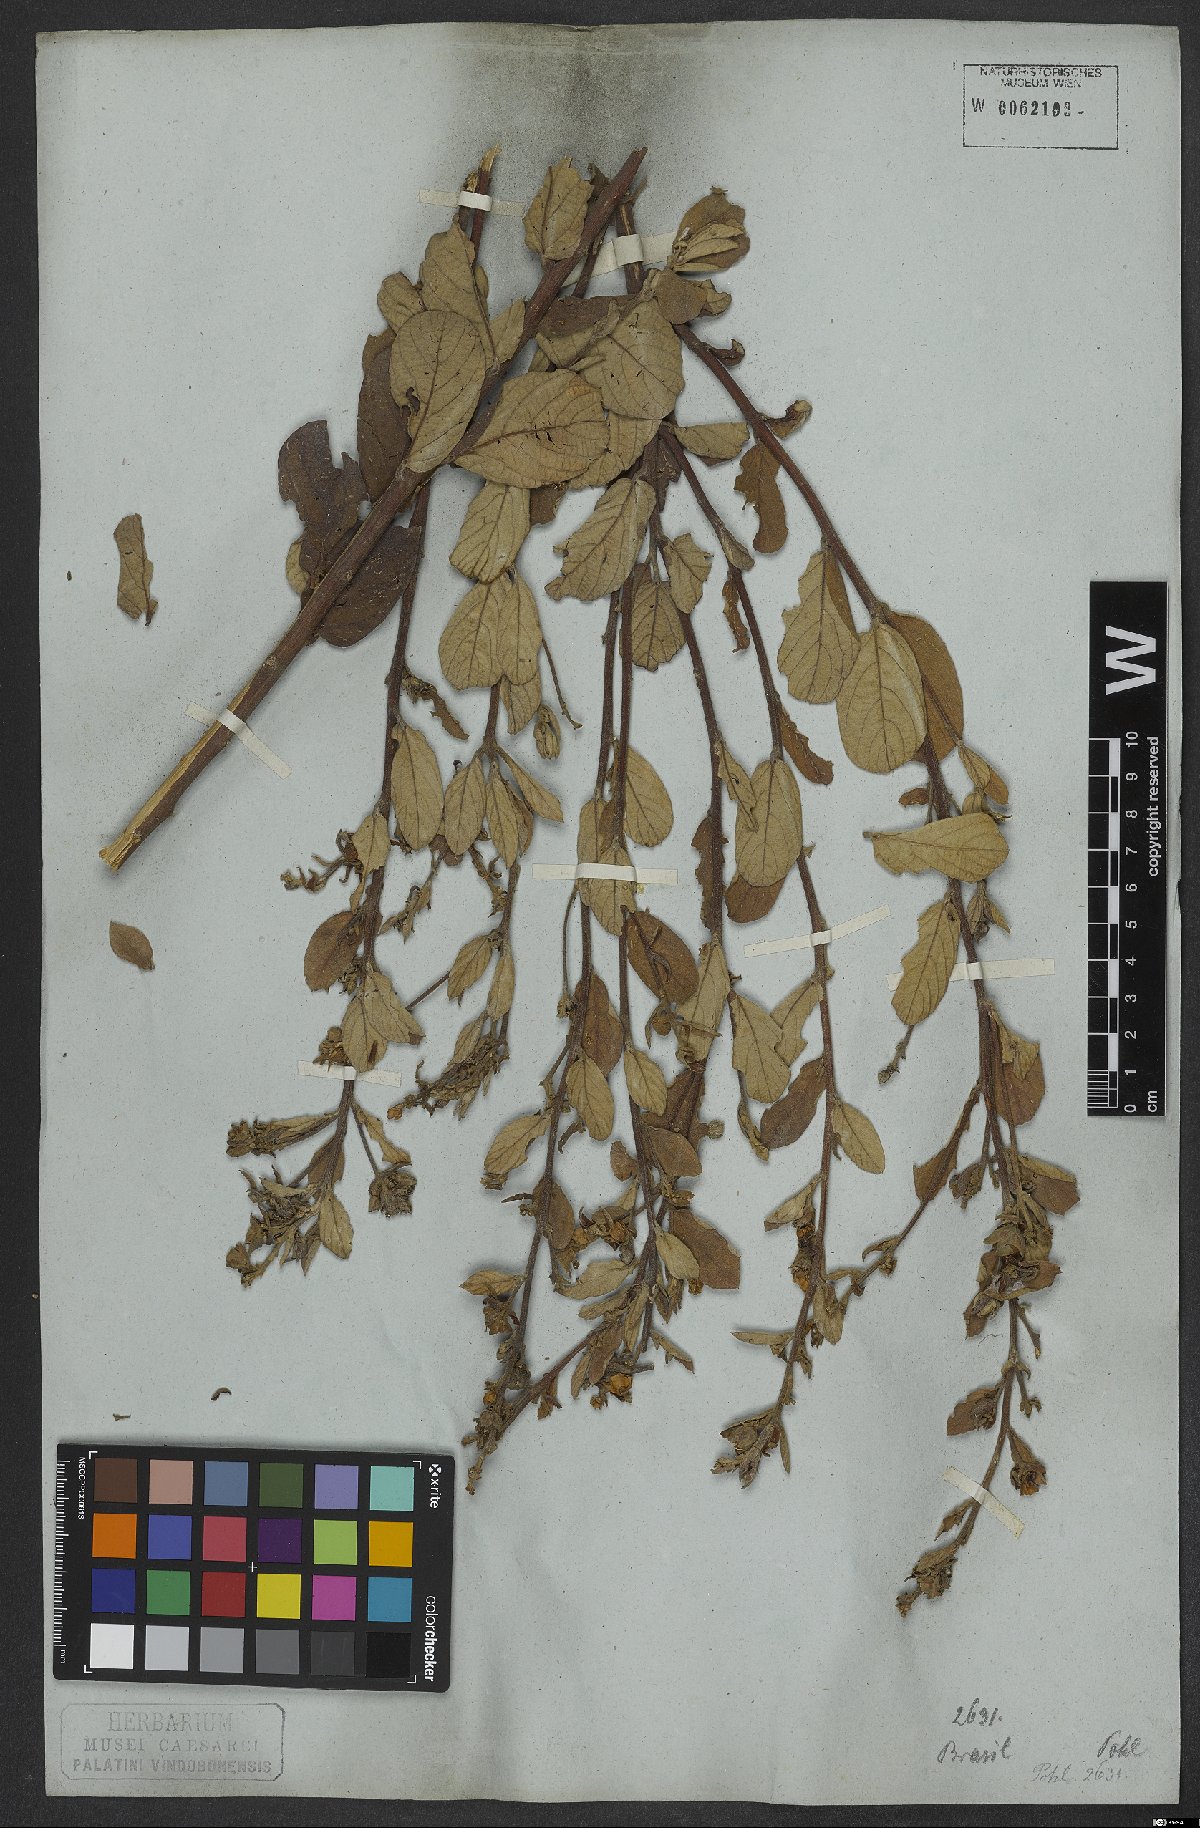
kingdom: Plantae
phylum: Tracheophyta
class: Magnoliopsida
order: Solanales
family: Convolvulaceae
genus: Ipomoea
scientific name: Ipomoea haenkeana
